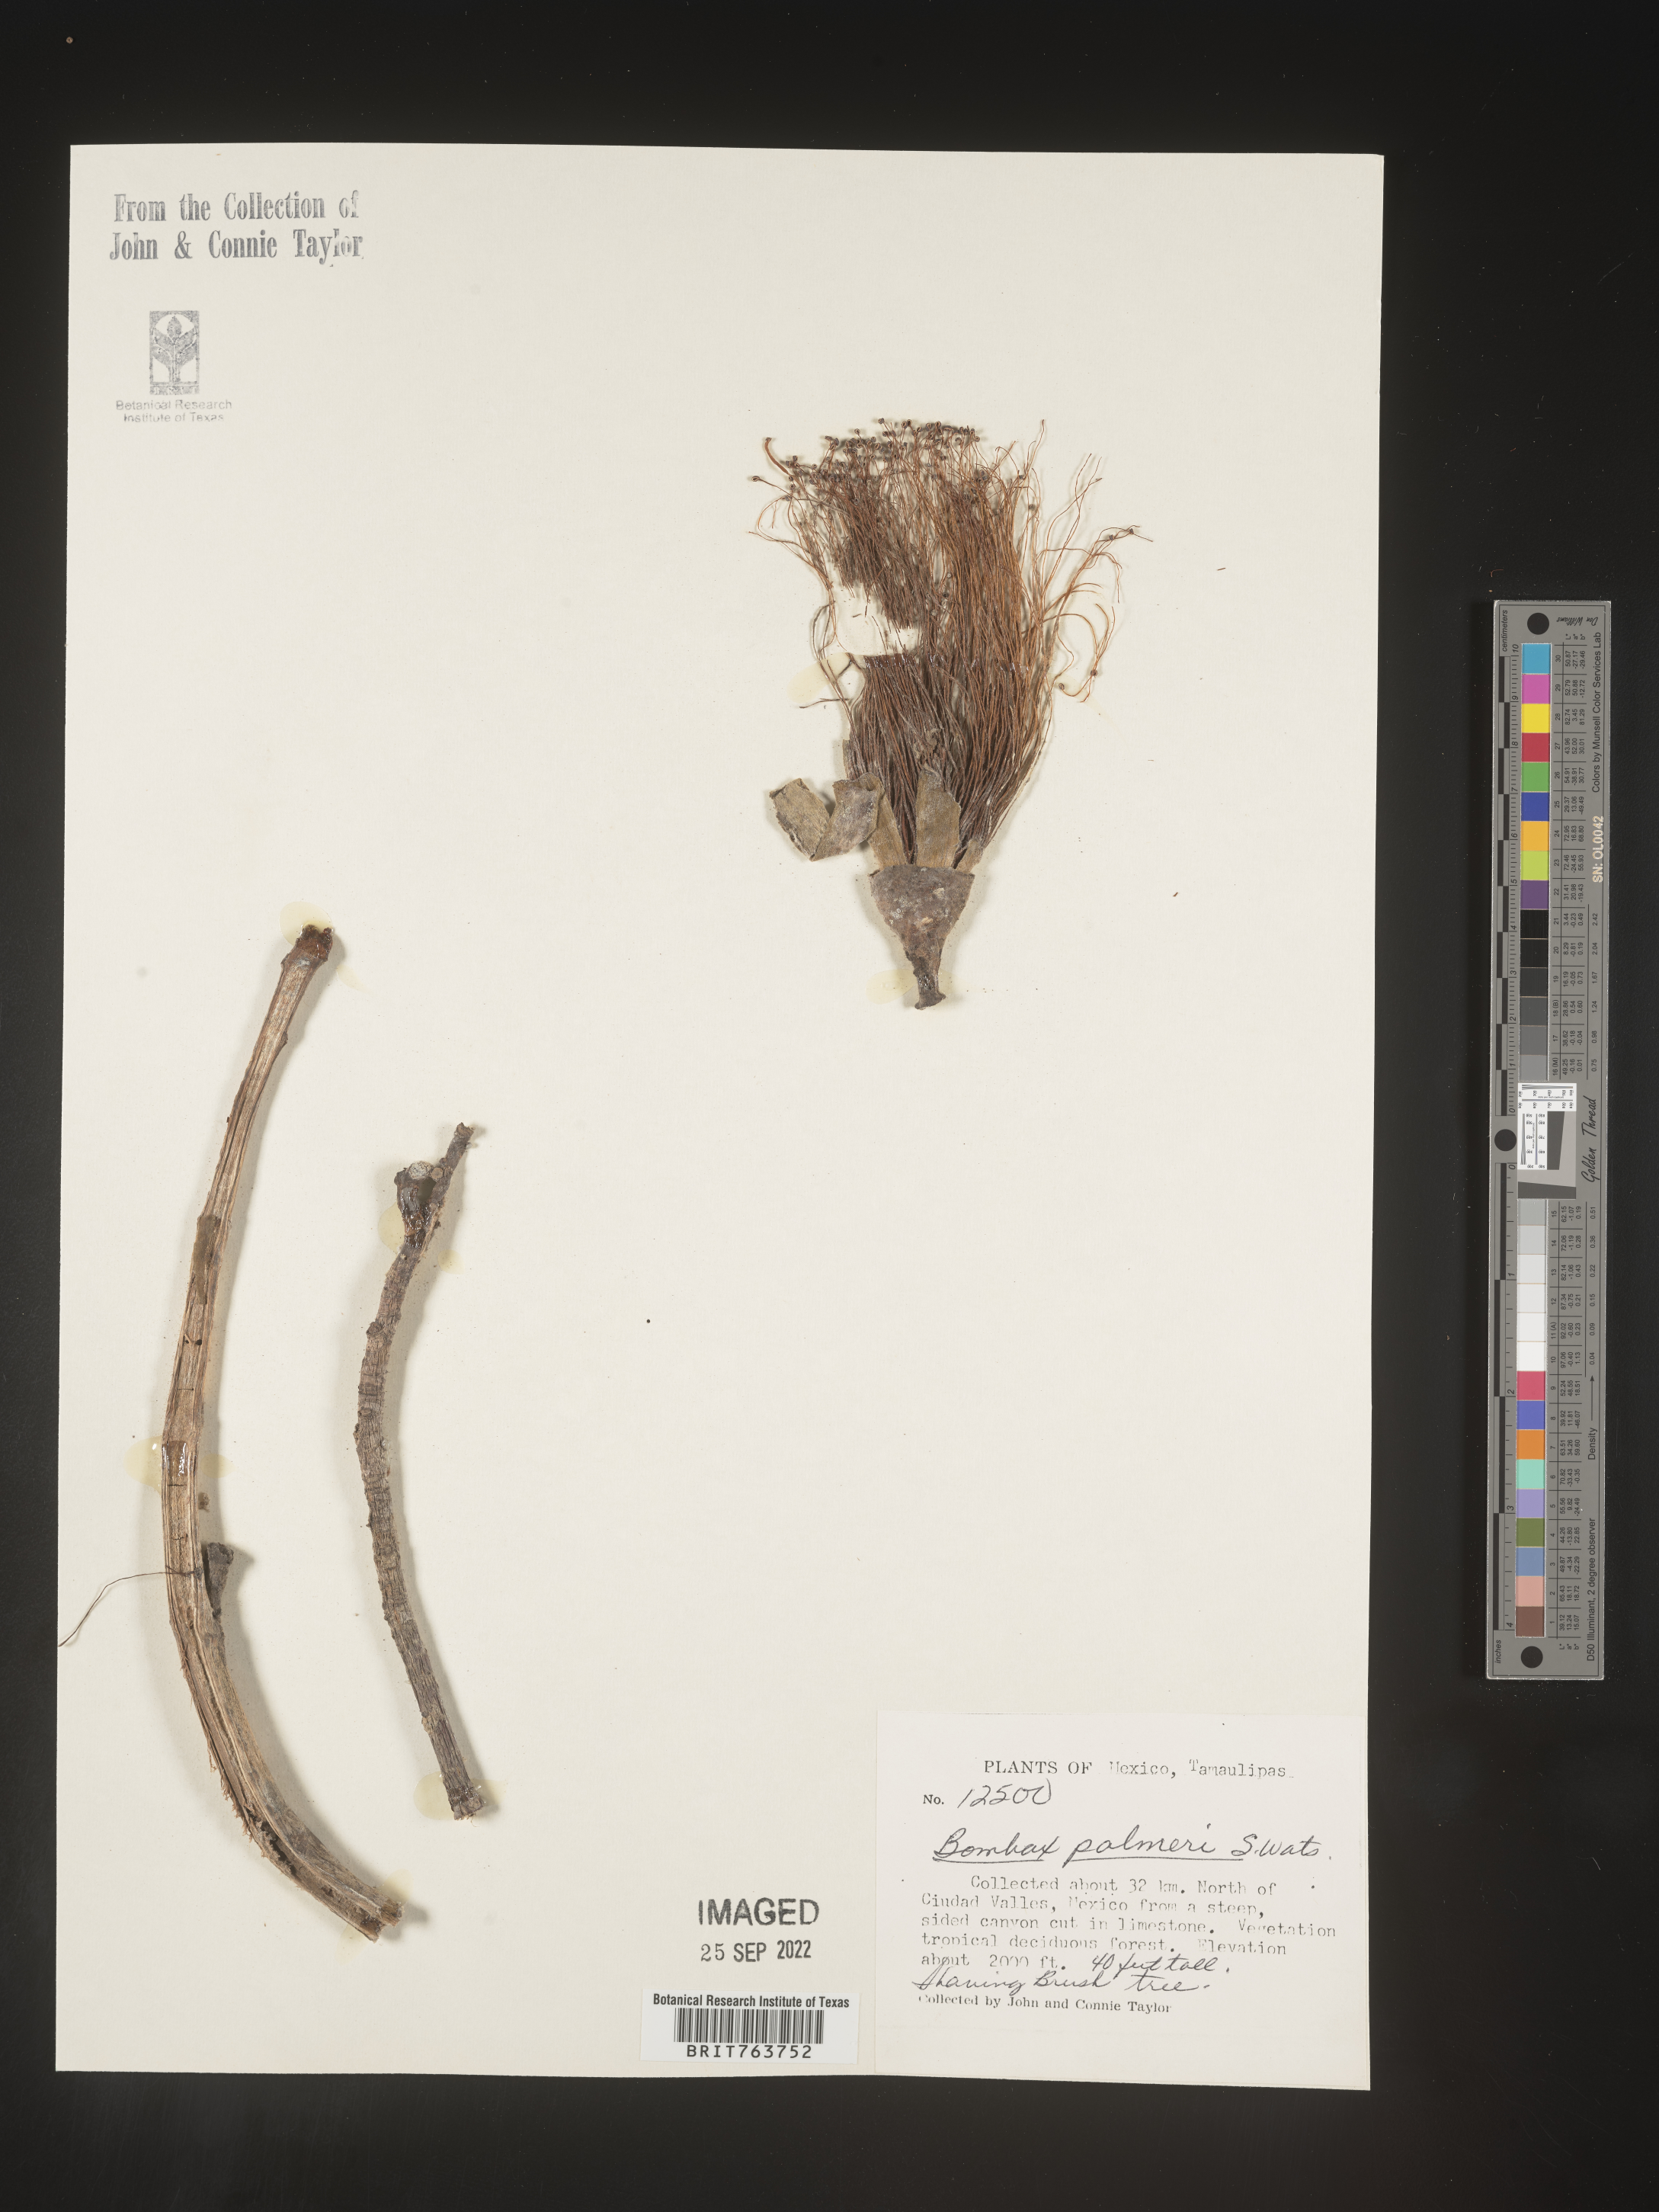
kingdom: Plantae
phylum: Tracheophyta
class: Magnoliopsida
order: Malvales
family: Malvaceae
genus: Bombax
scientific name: Bombax
